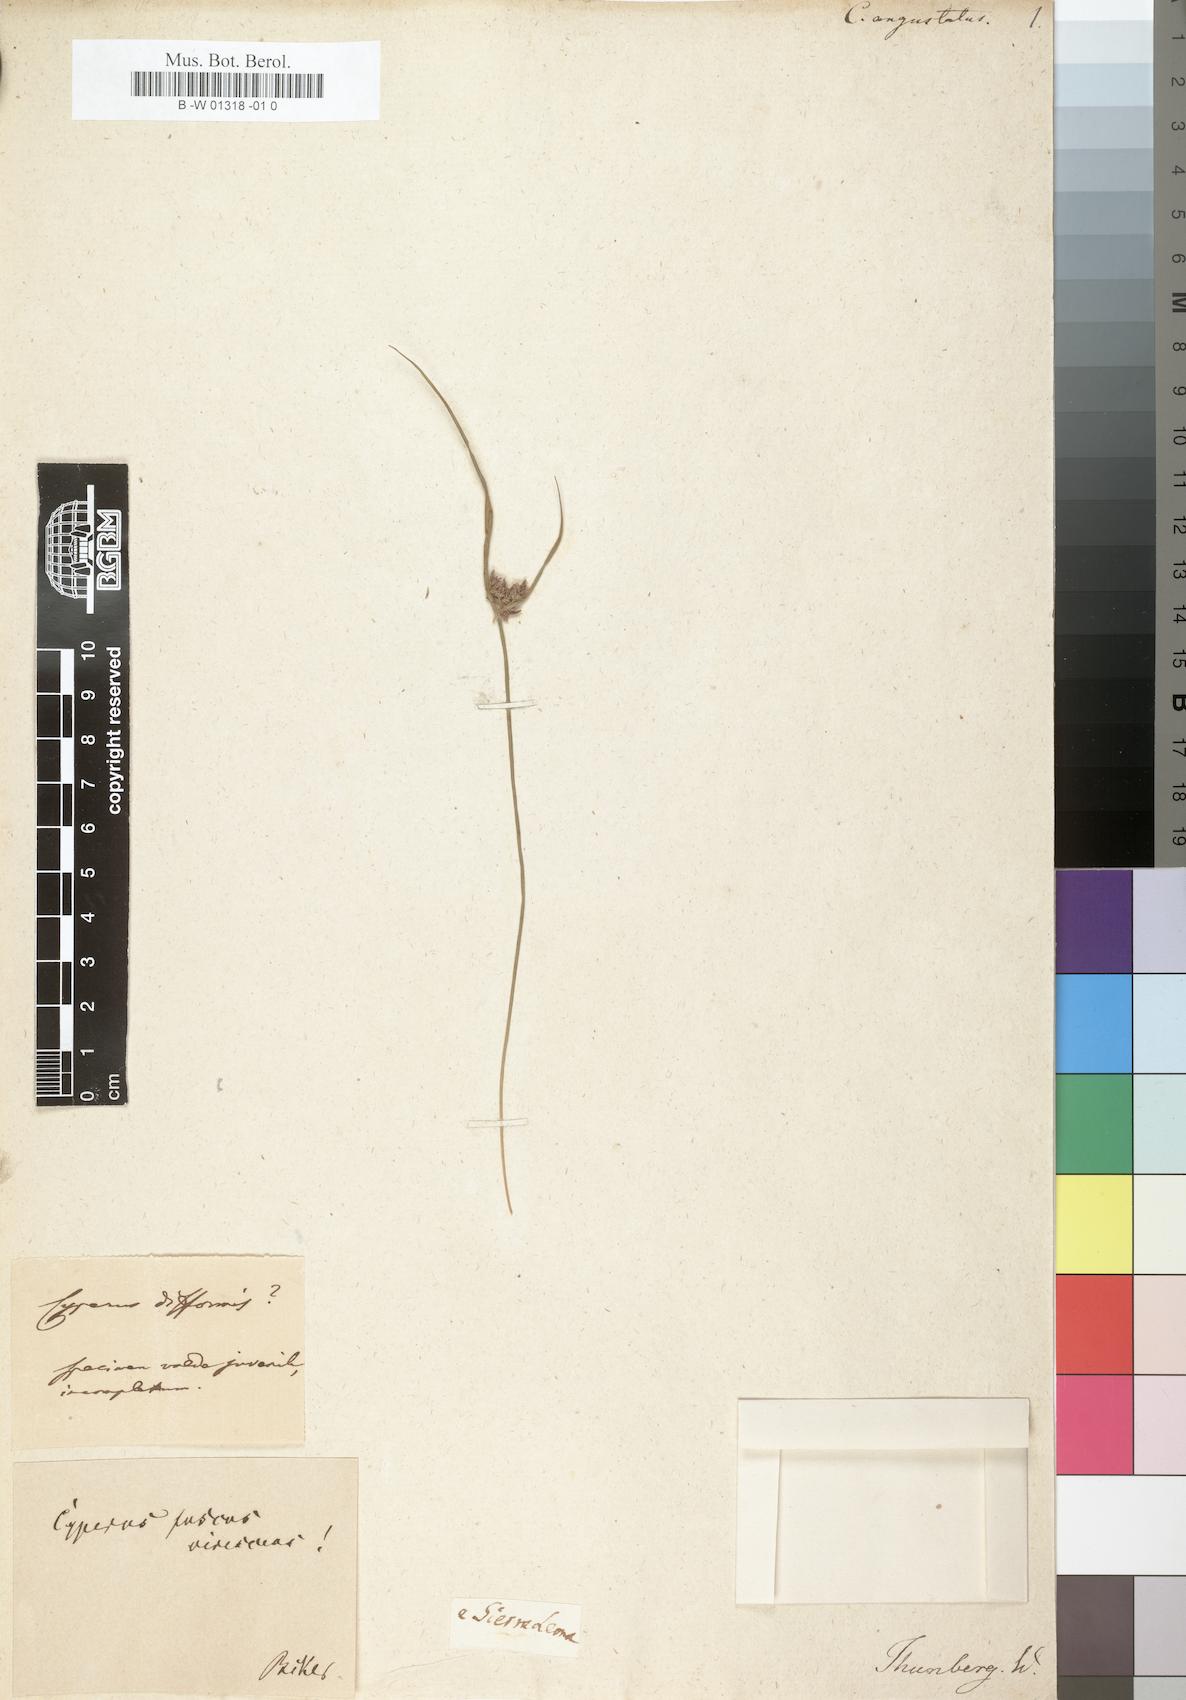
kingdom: Plantae
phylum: Tracheophyta
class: Liliopsida
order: Poales
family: Cyperaceae
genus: Cyperus
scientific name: Cyperus angustatus
